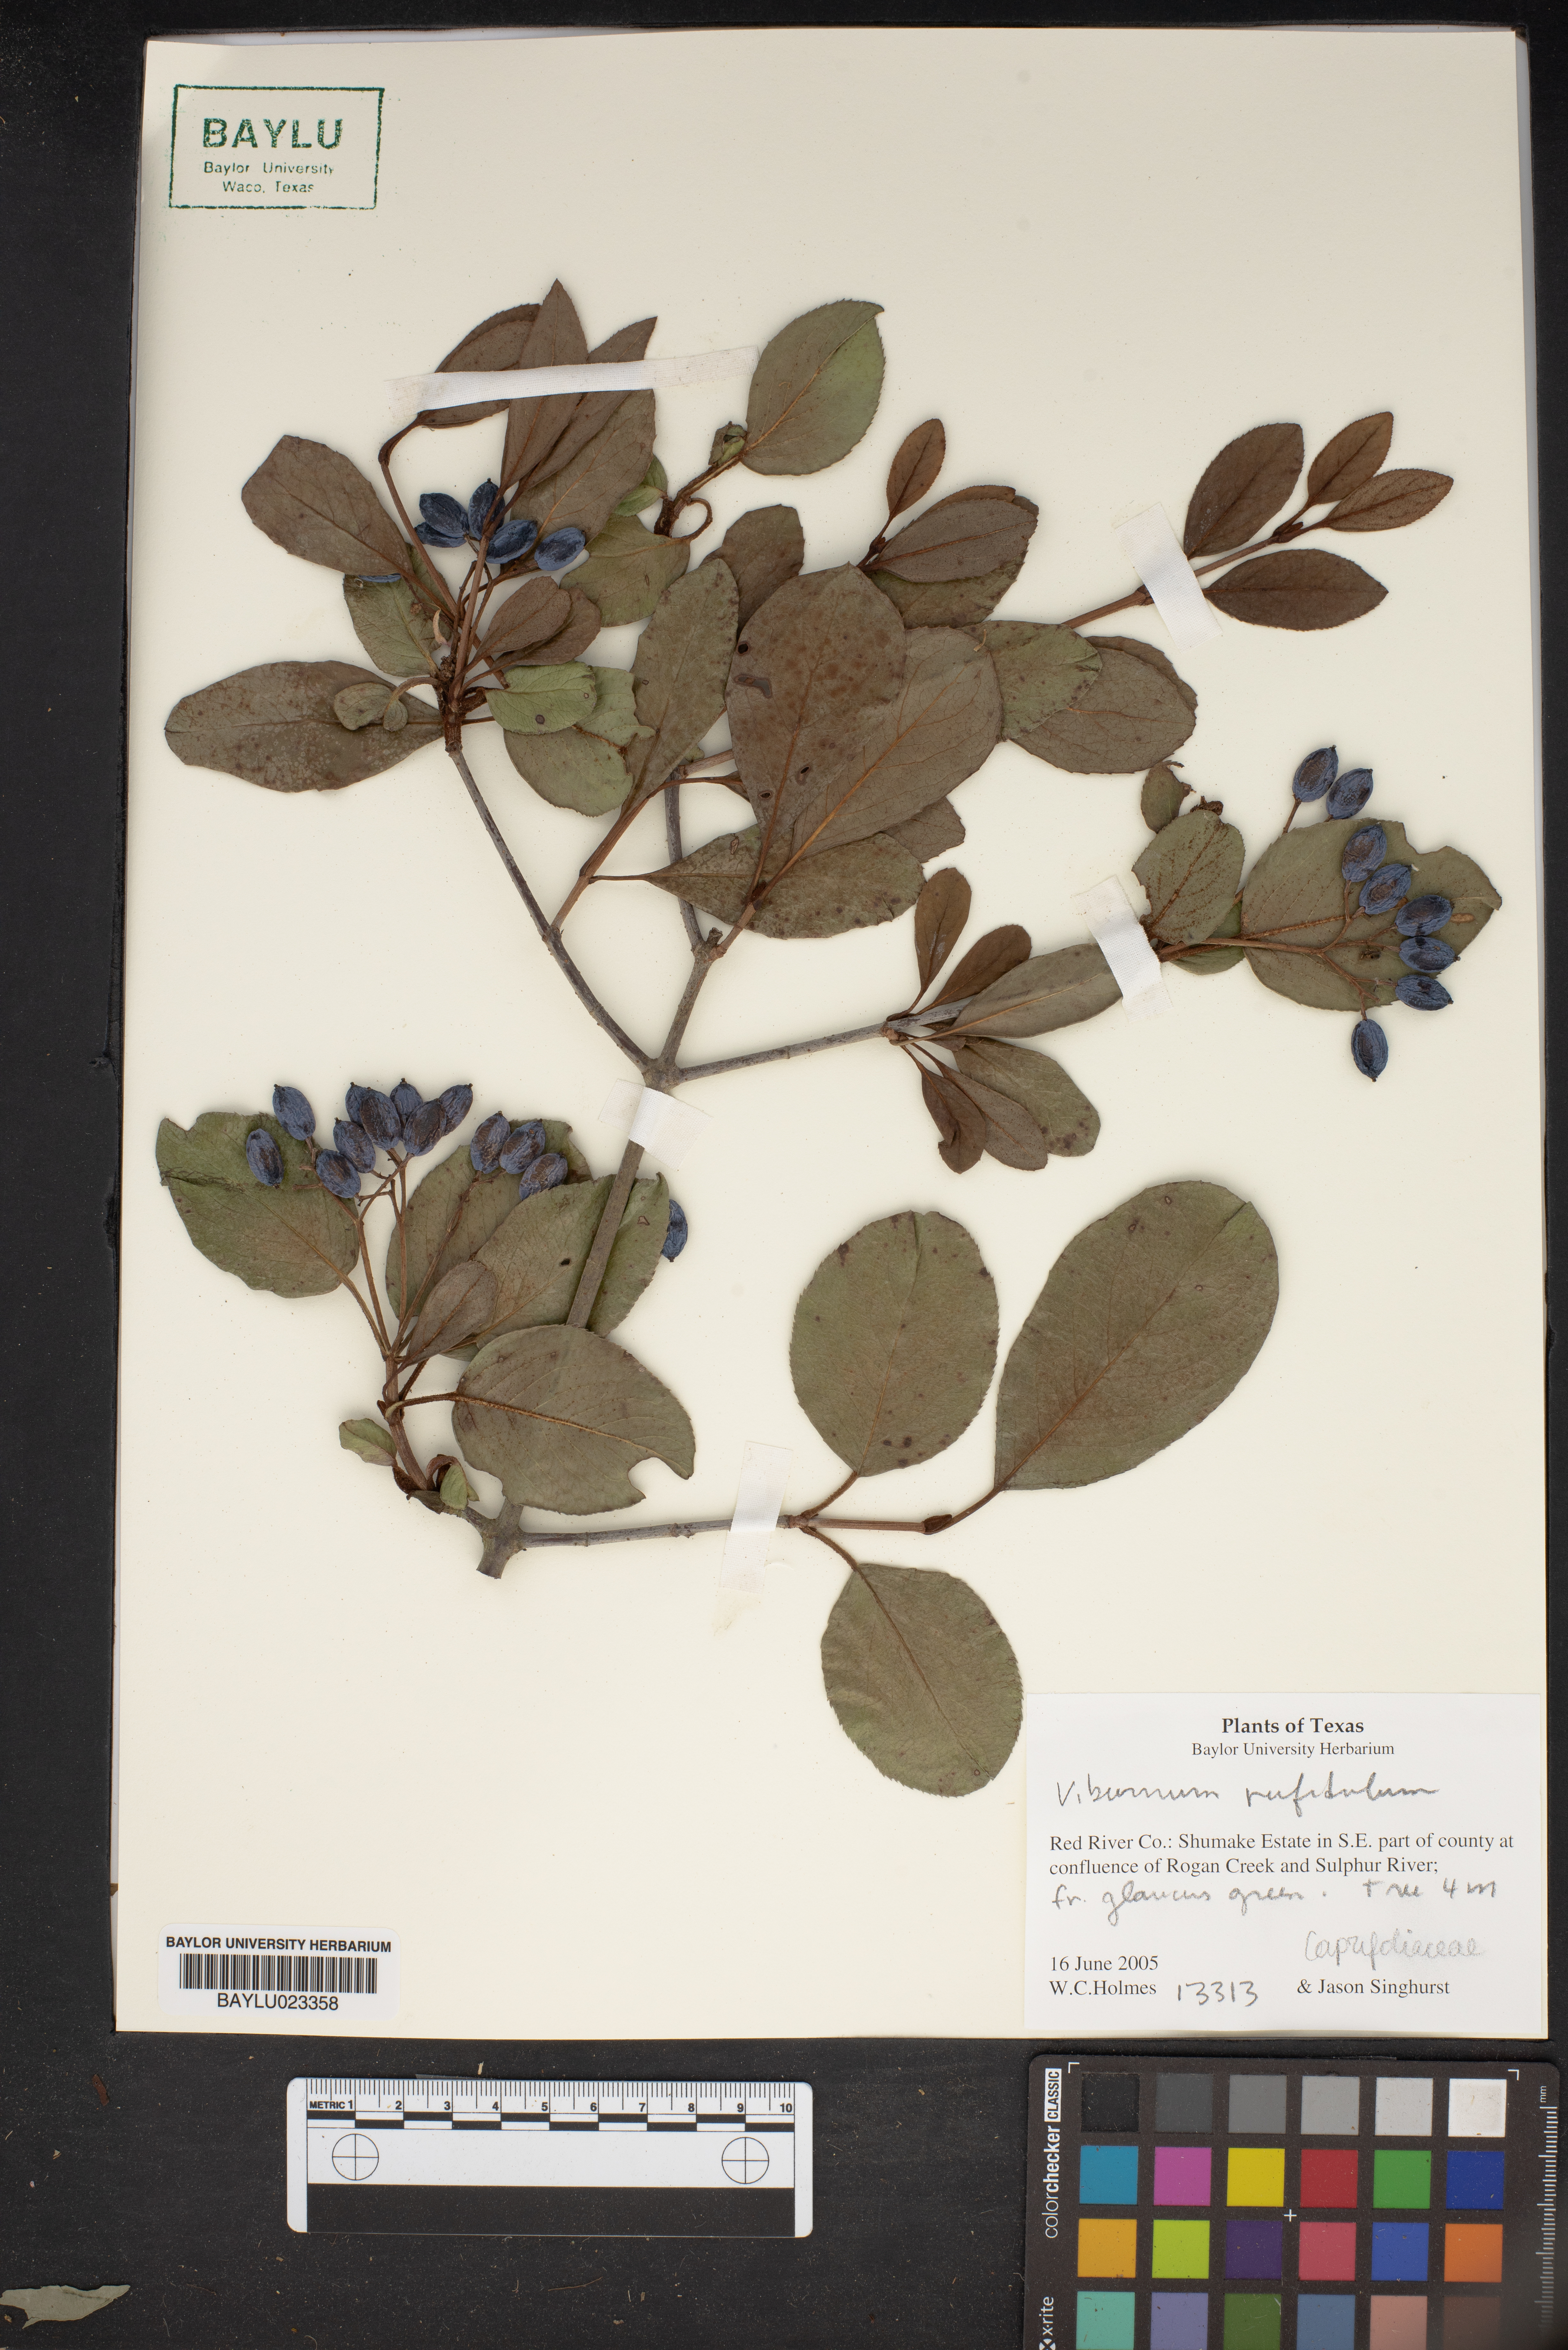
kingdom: Plantae
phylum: Tracheophyta
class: Magnoliopsida
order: Dipsacales
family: Viburnaceae
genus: Viburnum
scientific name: Viburnum rufidulum
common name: Blue haw
